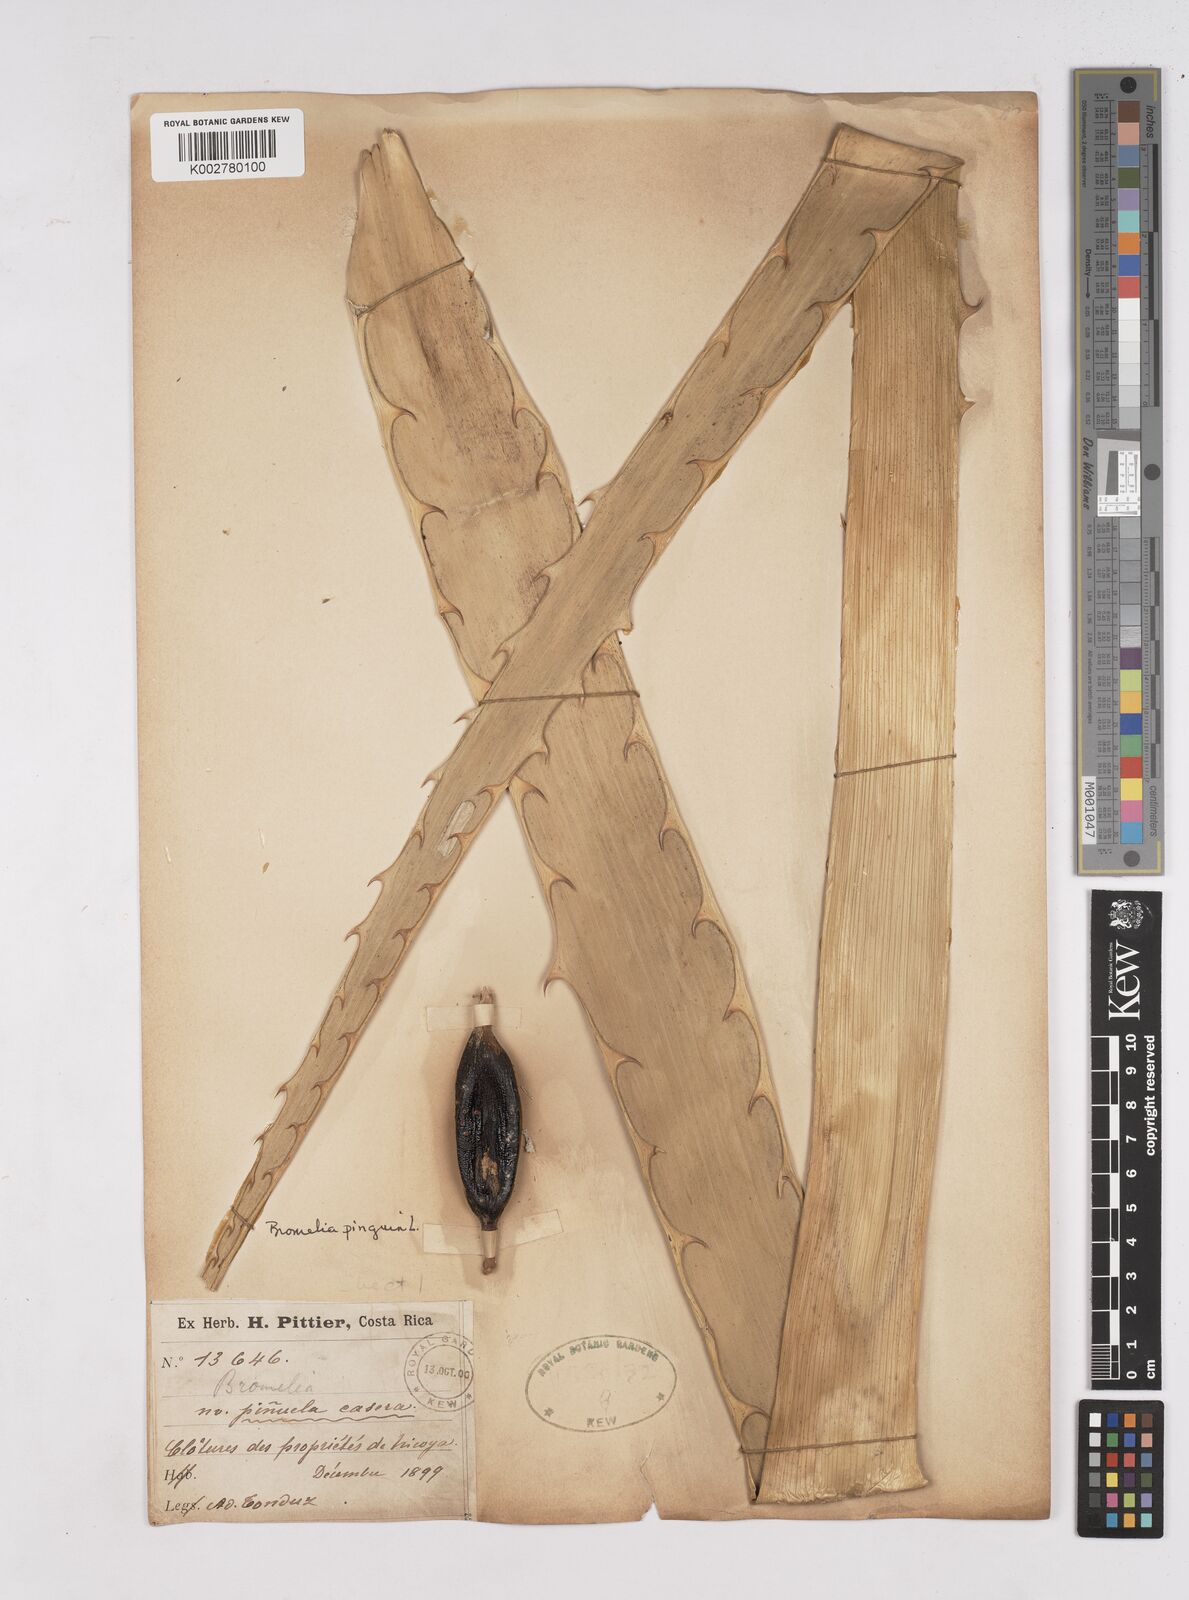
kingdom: Plantae
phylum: Tracheophyta
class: Liliopsida
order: Poales
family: Bromeliaceae
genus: Bromelia
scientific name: Bromelia pinguin
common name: Pinguin
